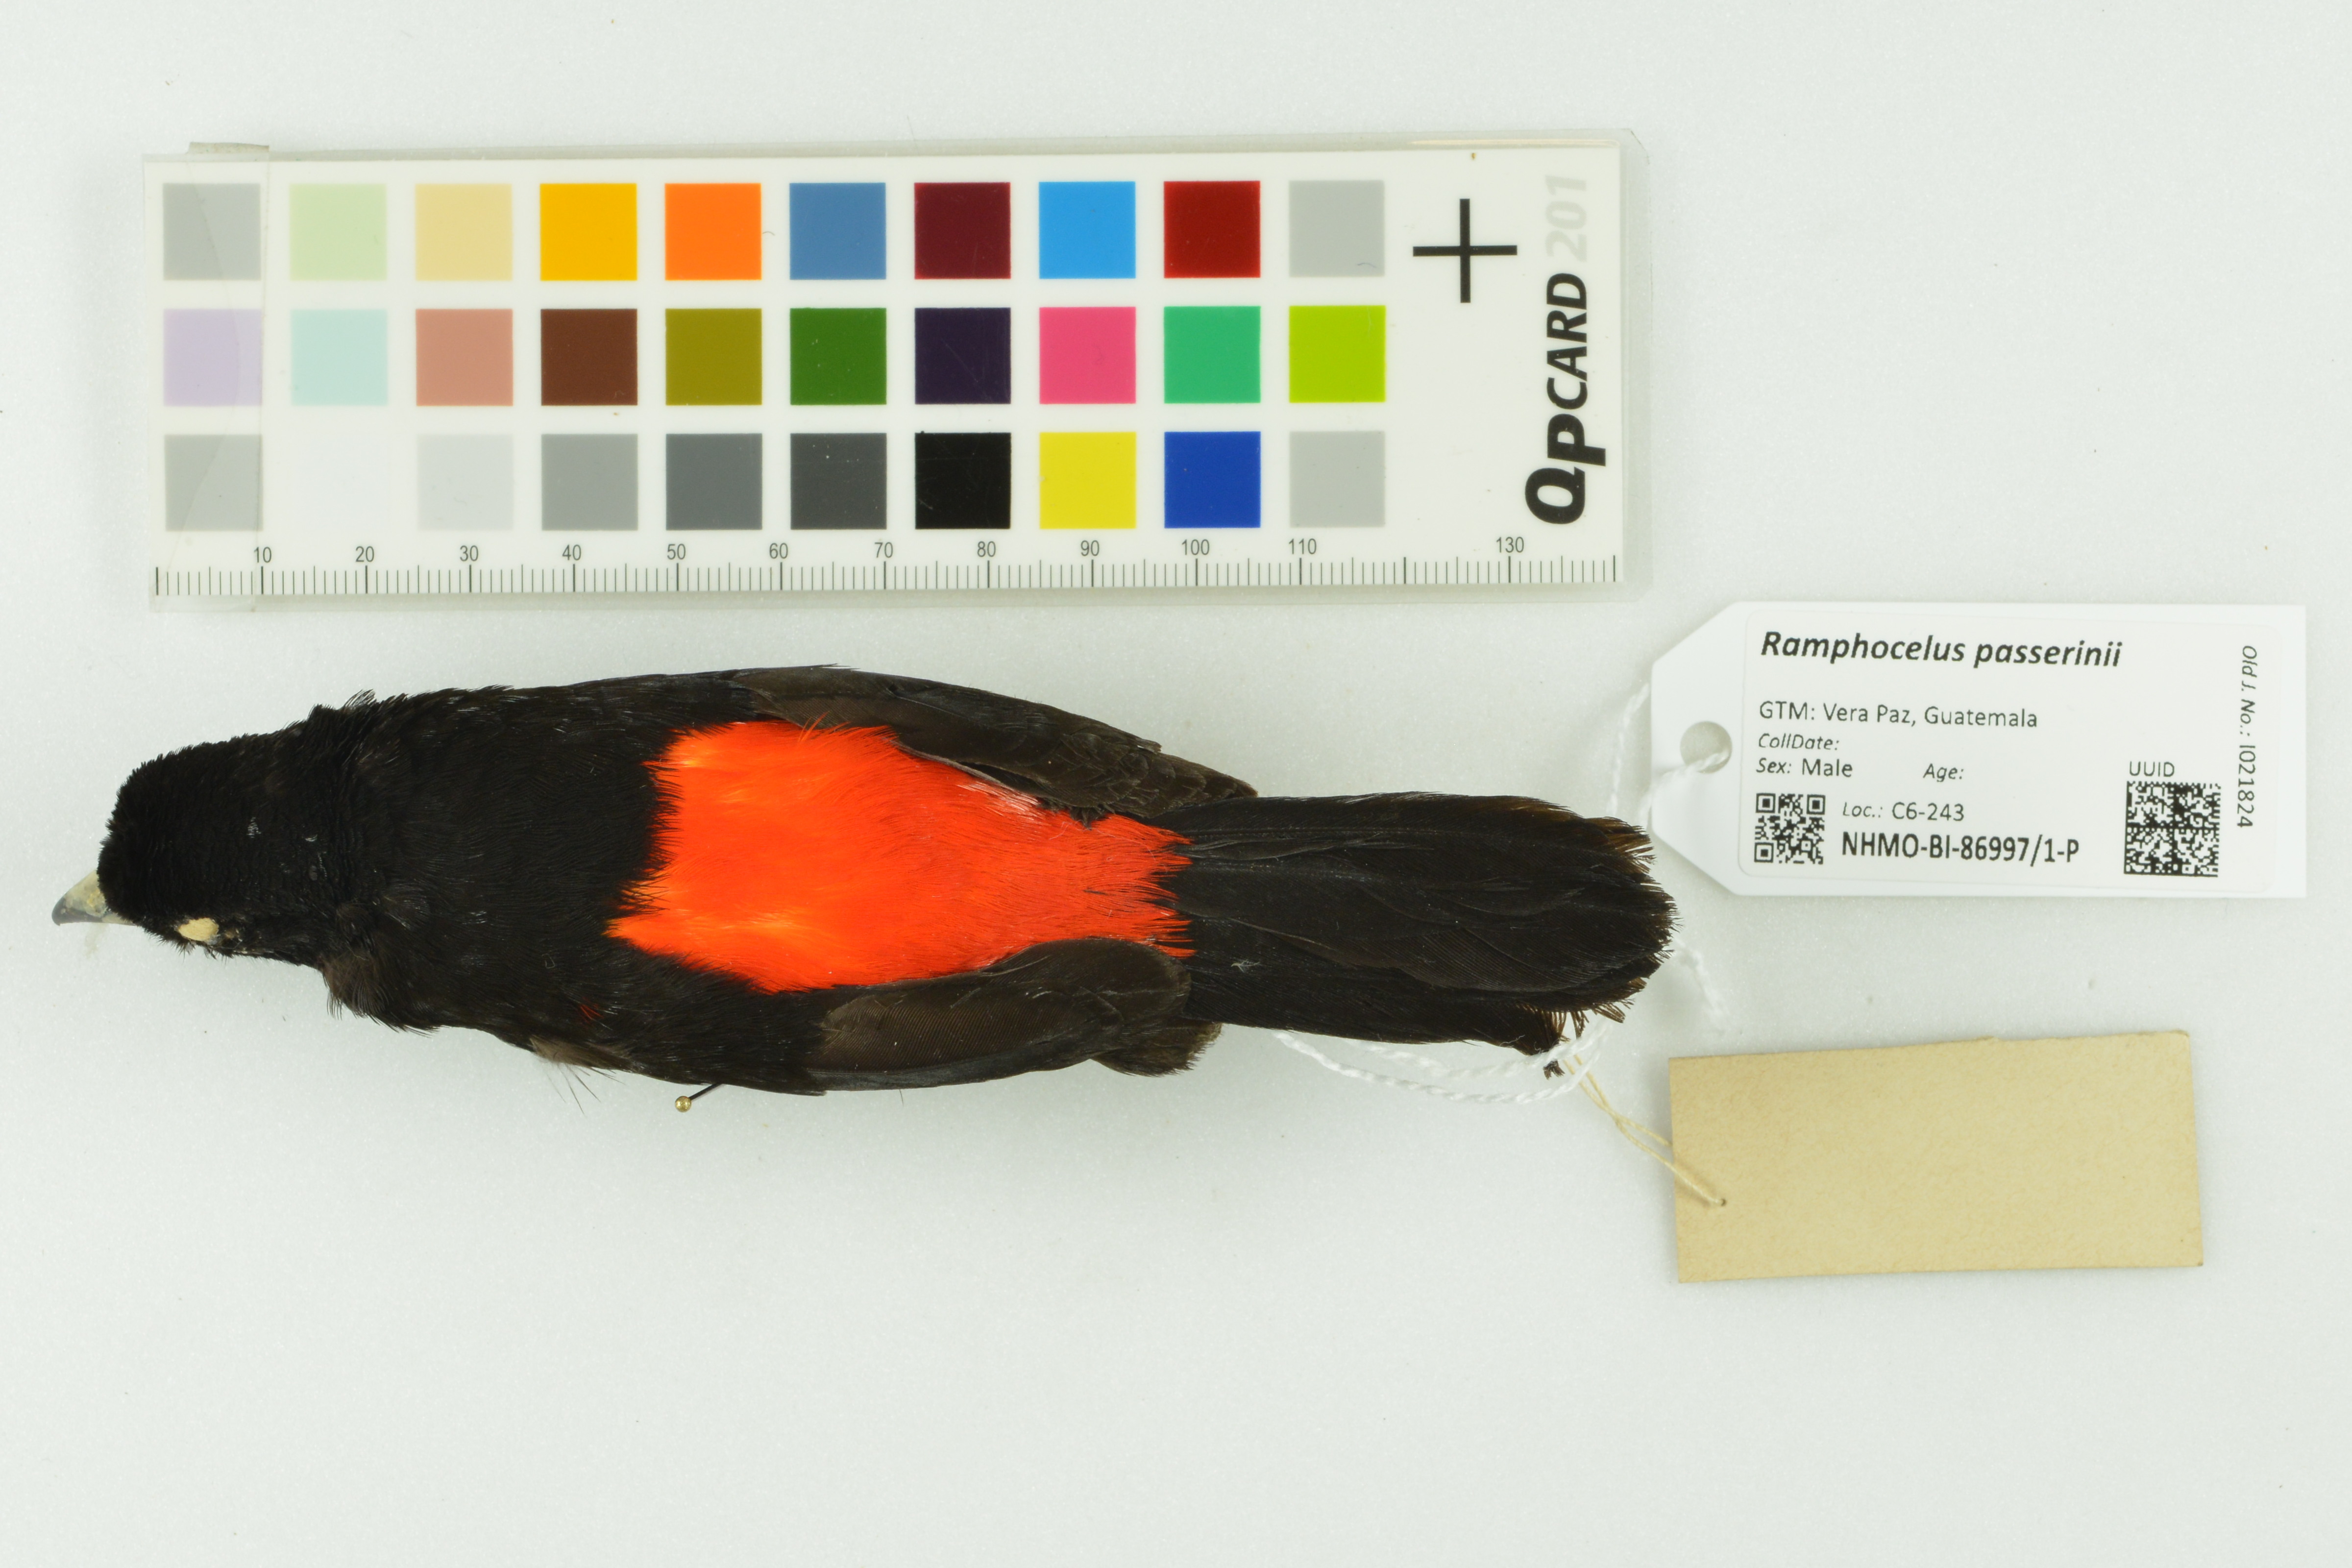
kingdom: Animalia
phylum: Chordata
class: Aves
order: Passeriformes
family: Thraupidae
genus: Ramphocelus
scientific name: Ramphocelus passerinii
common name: Passerini's tanager
